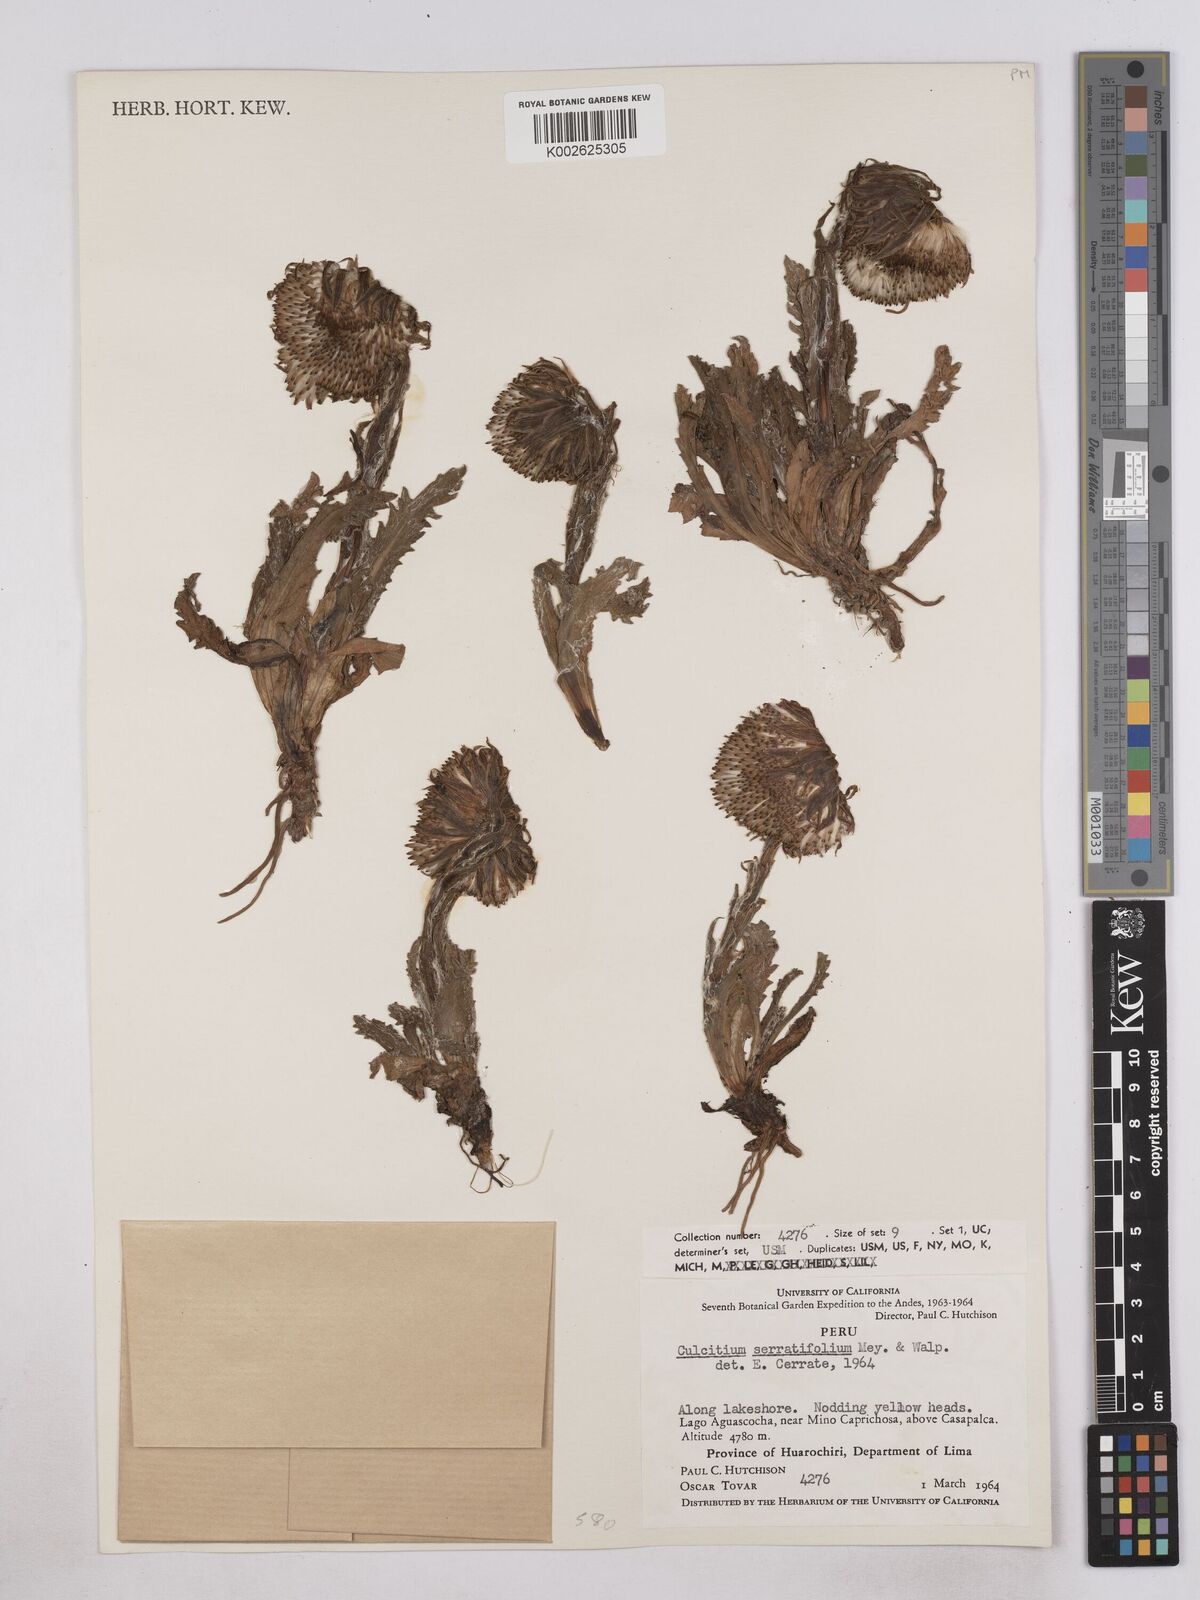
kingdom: Plantae
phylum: Tracheophyta
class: Magnoliopsida
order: Asterales
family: Asteraceae
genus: Senecio
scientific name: Senecio serratifolius
